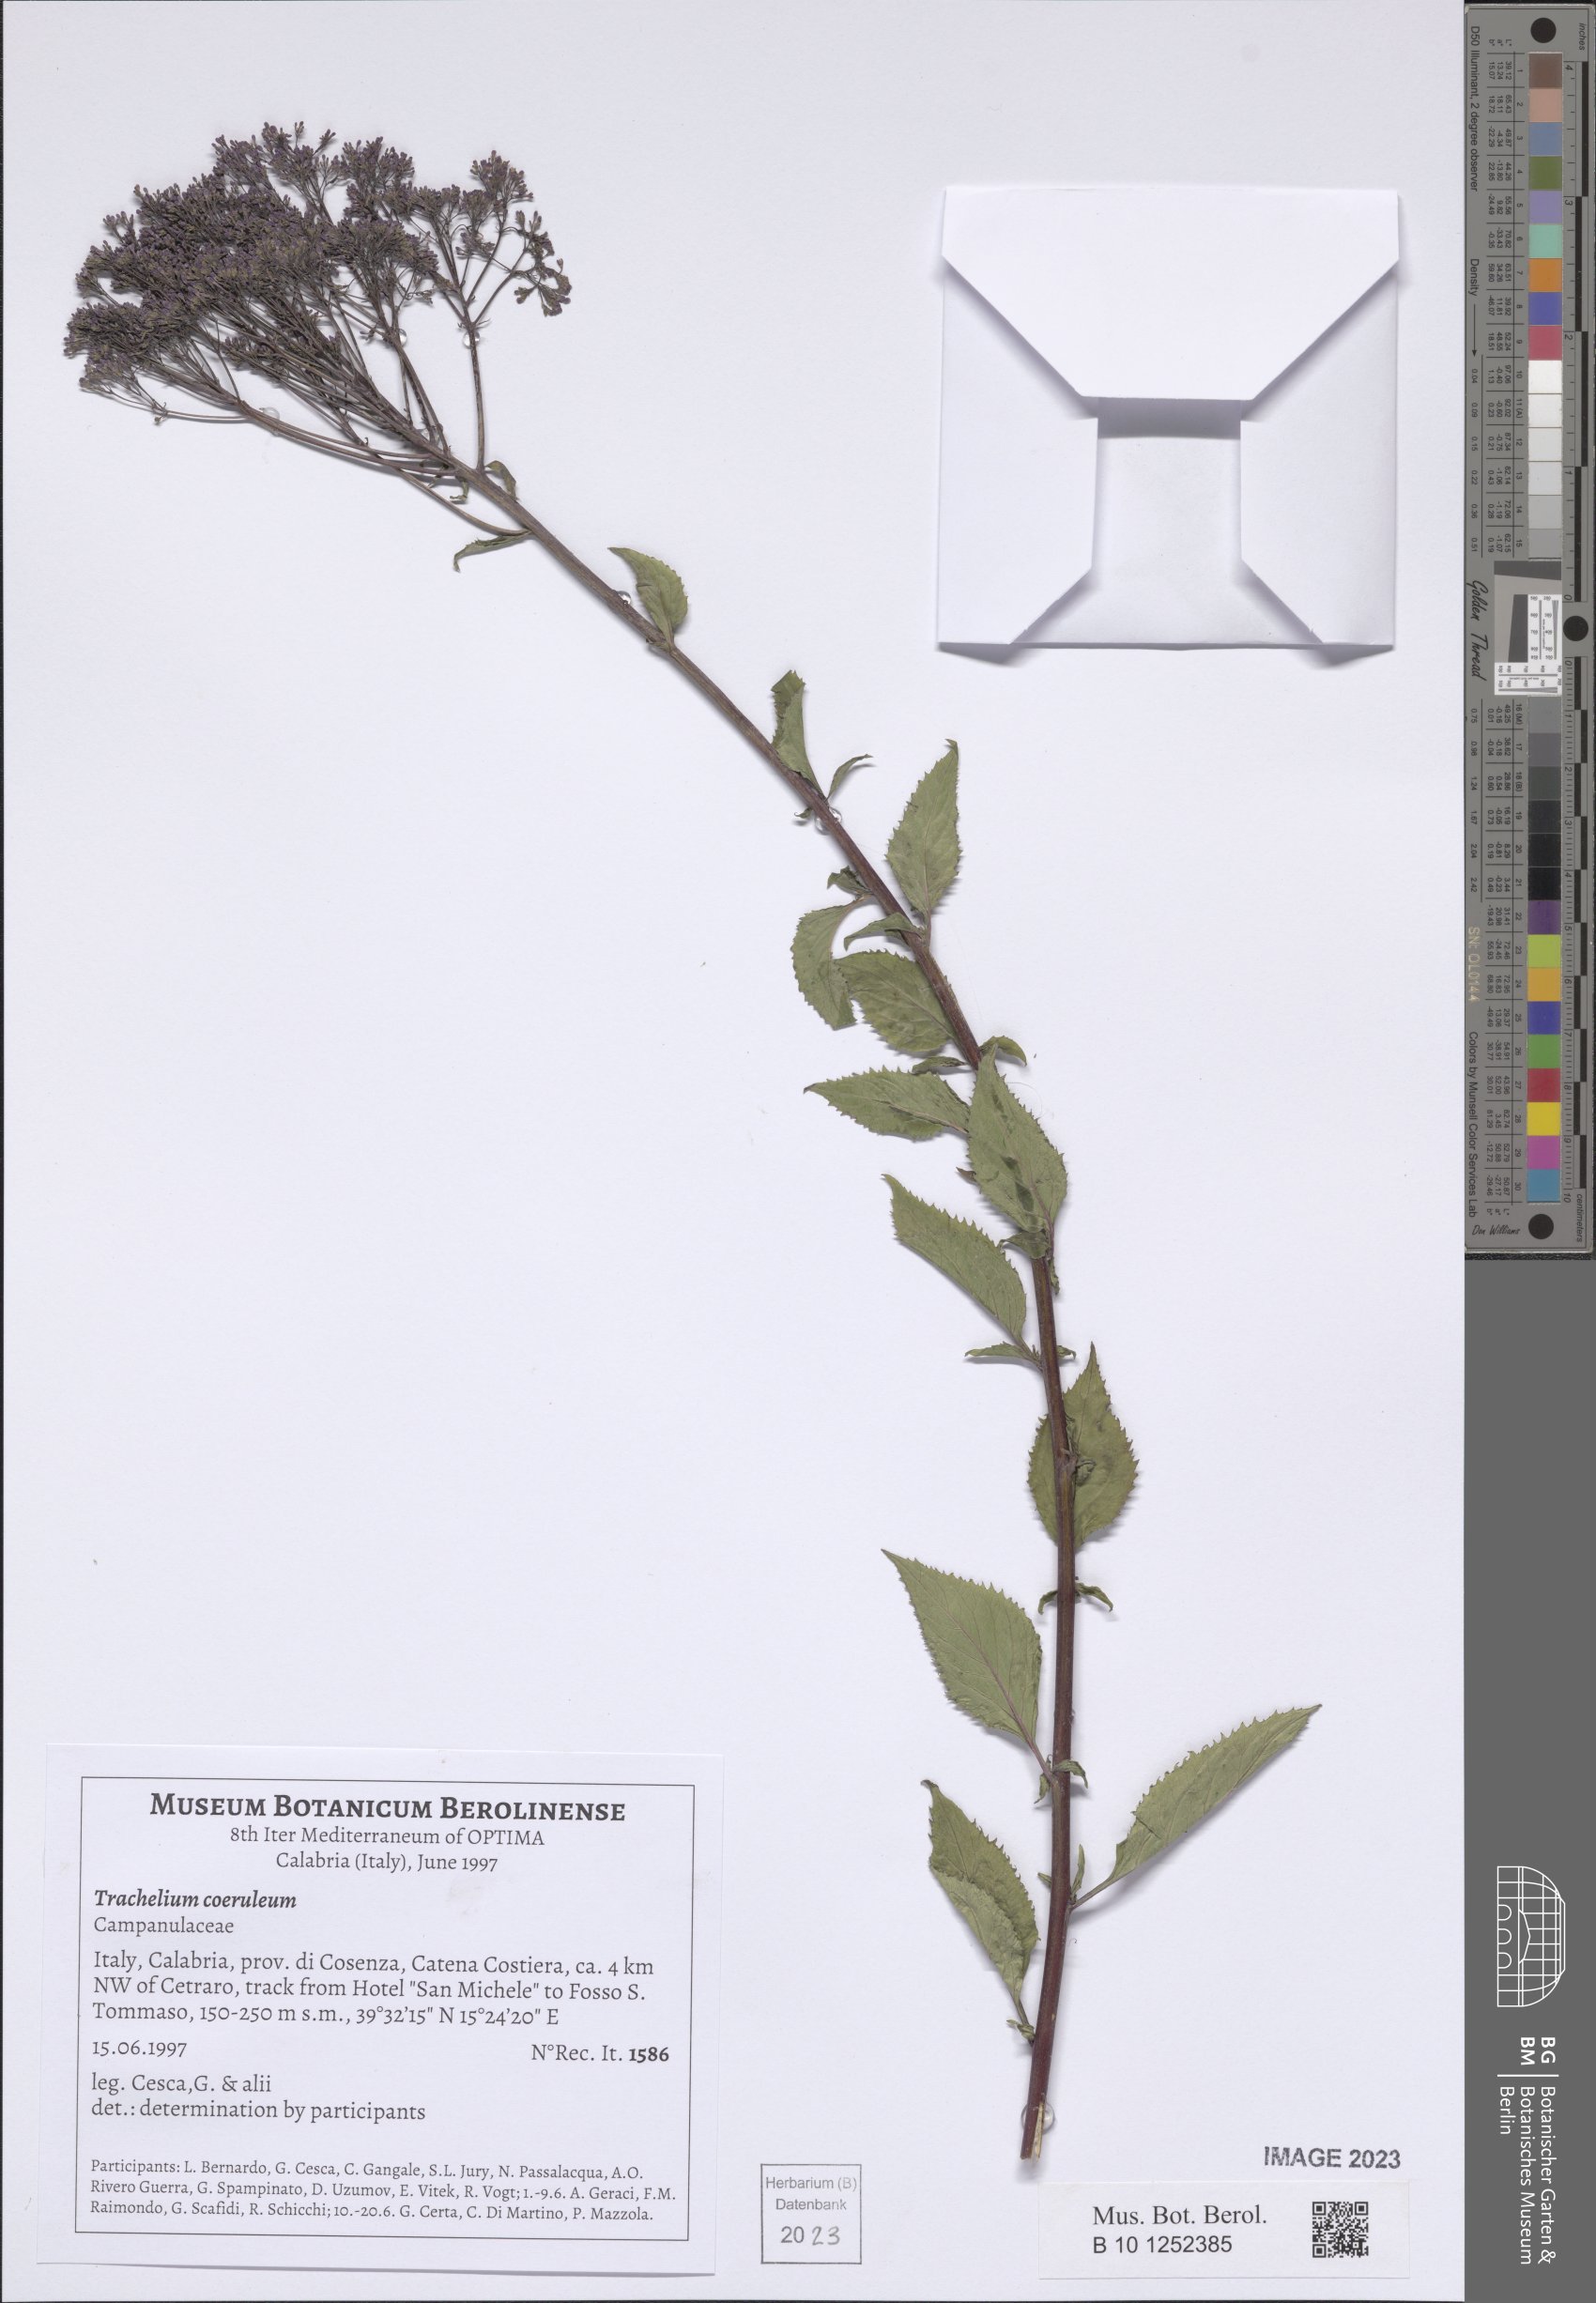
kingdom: Plantae
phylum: Tracheophyta
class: Magnoliopsida
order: Asterales
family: Campanulaceae
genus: Trachelium
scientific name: Trachelium caeruleum
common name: Throatwort
